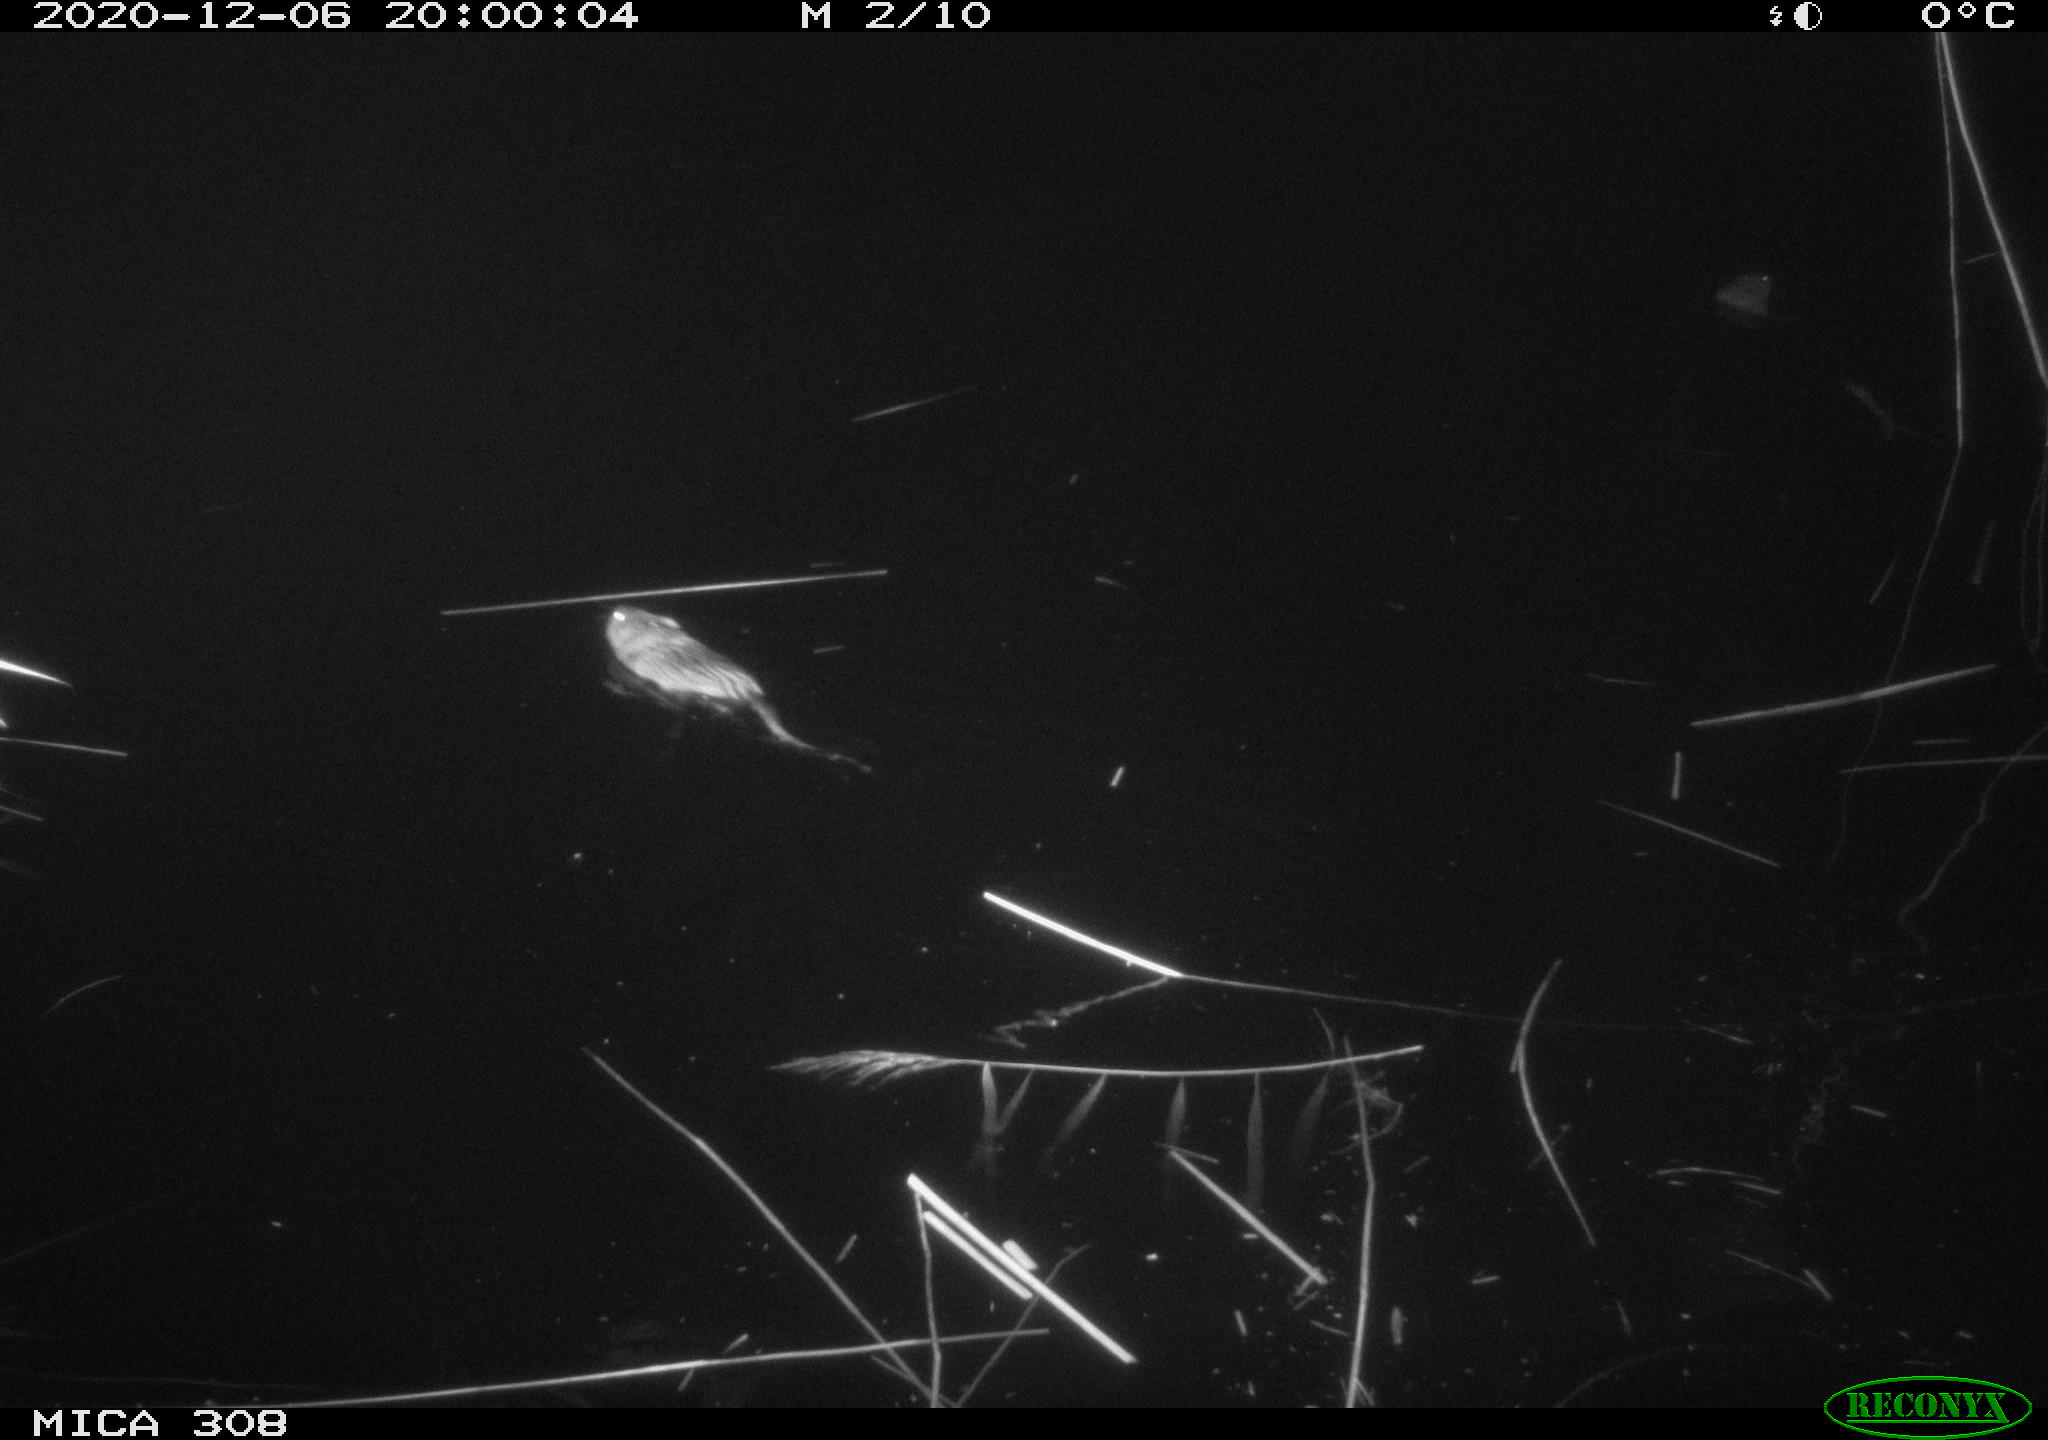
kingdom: Animalia
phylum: Chordata
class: Mammalia
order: Rodentia
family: Cricetidae
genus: Ondatra
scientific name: Ondatra zibethicus
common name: Muskrat
